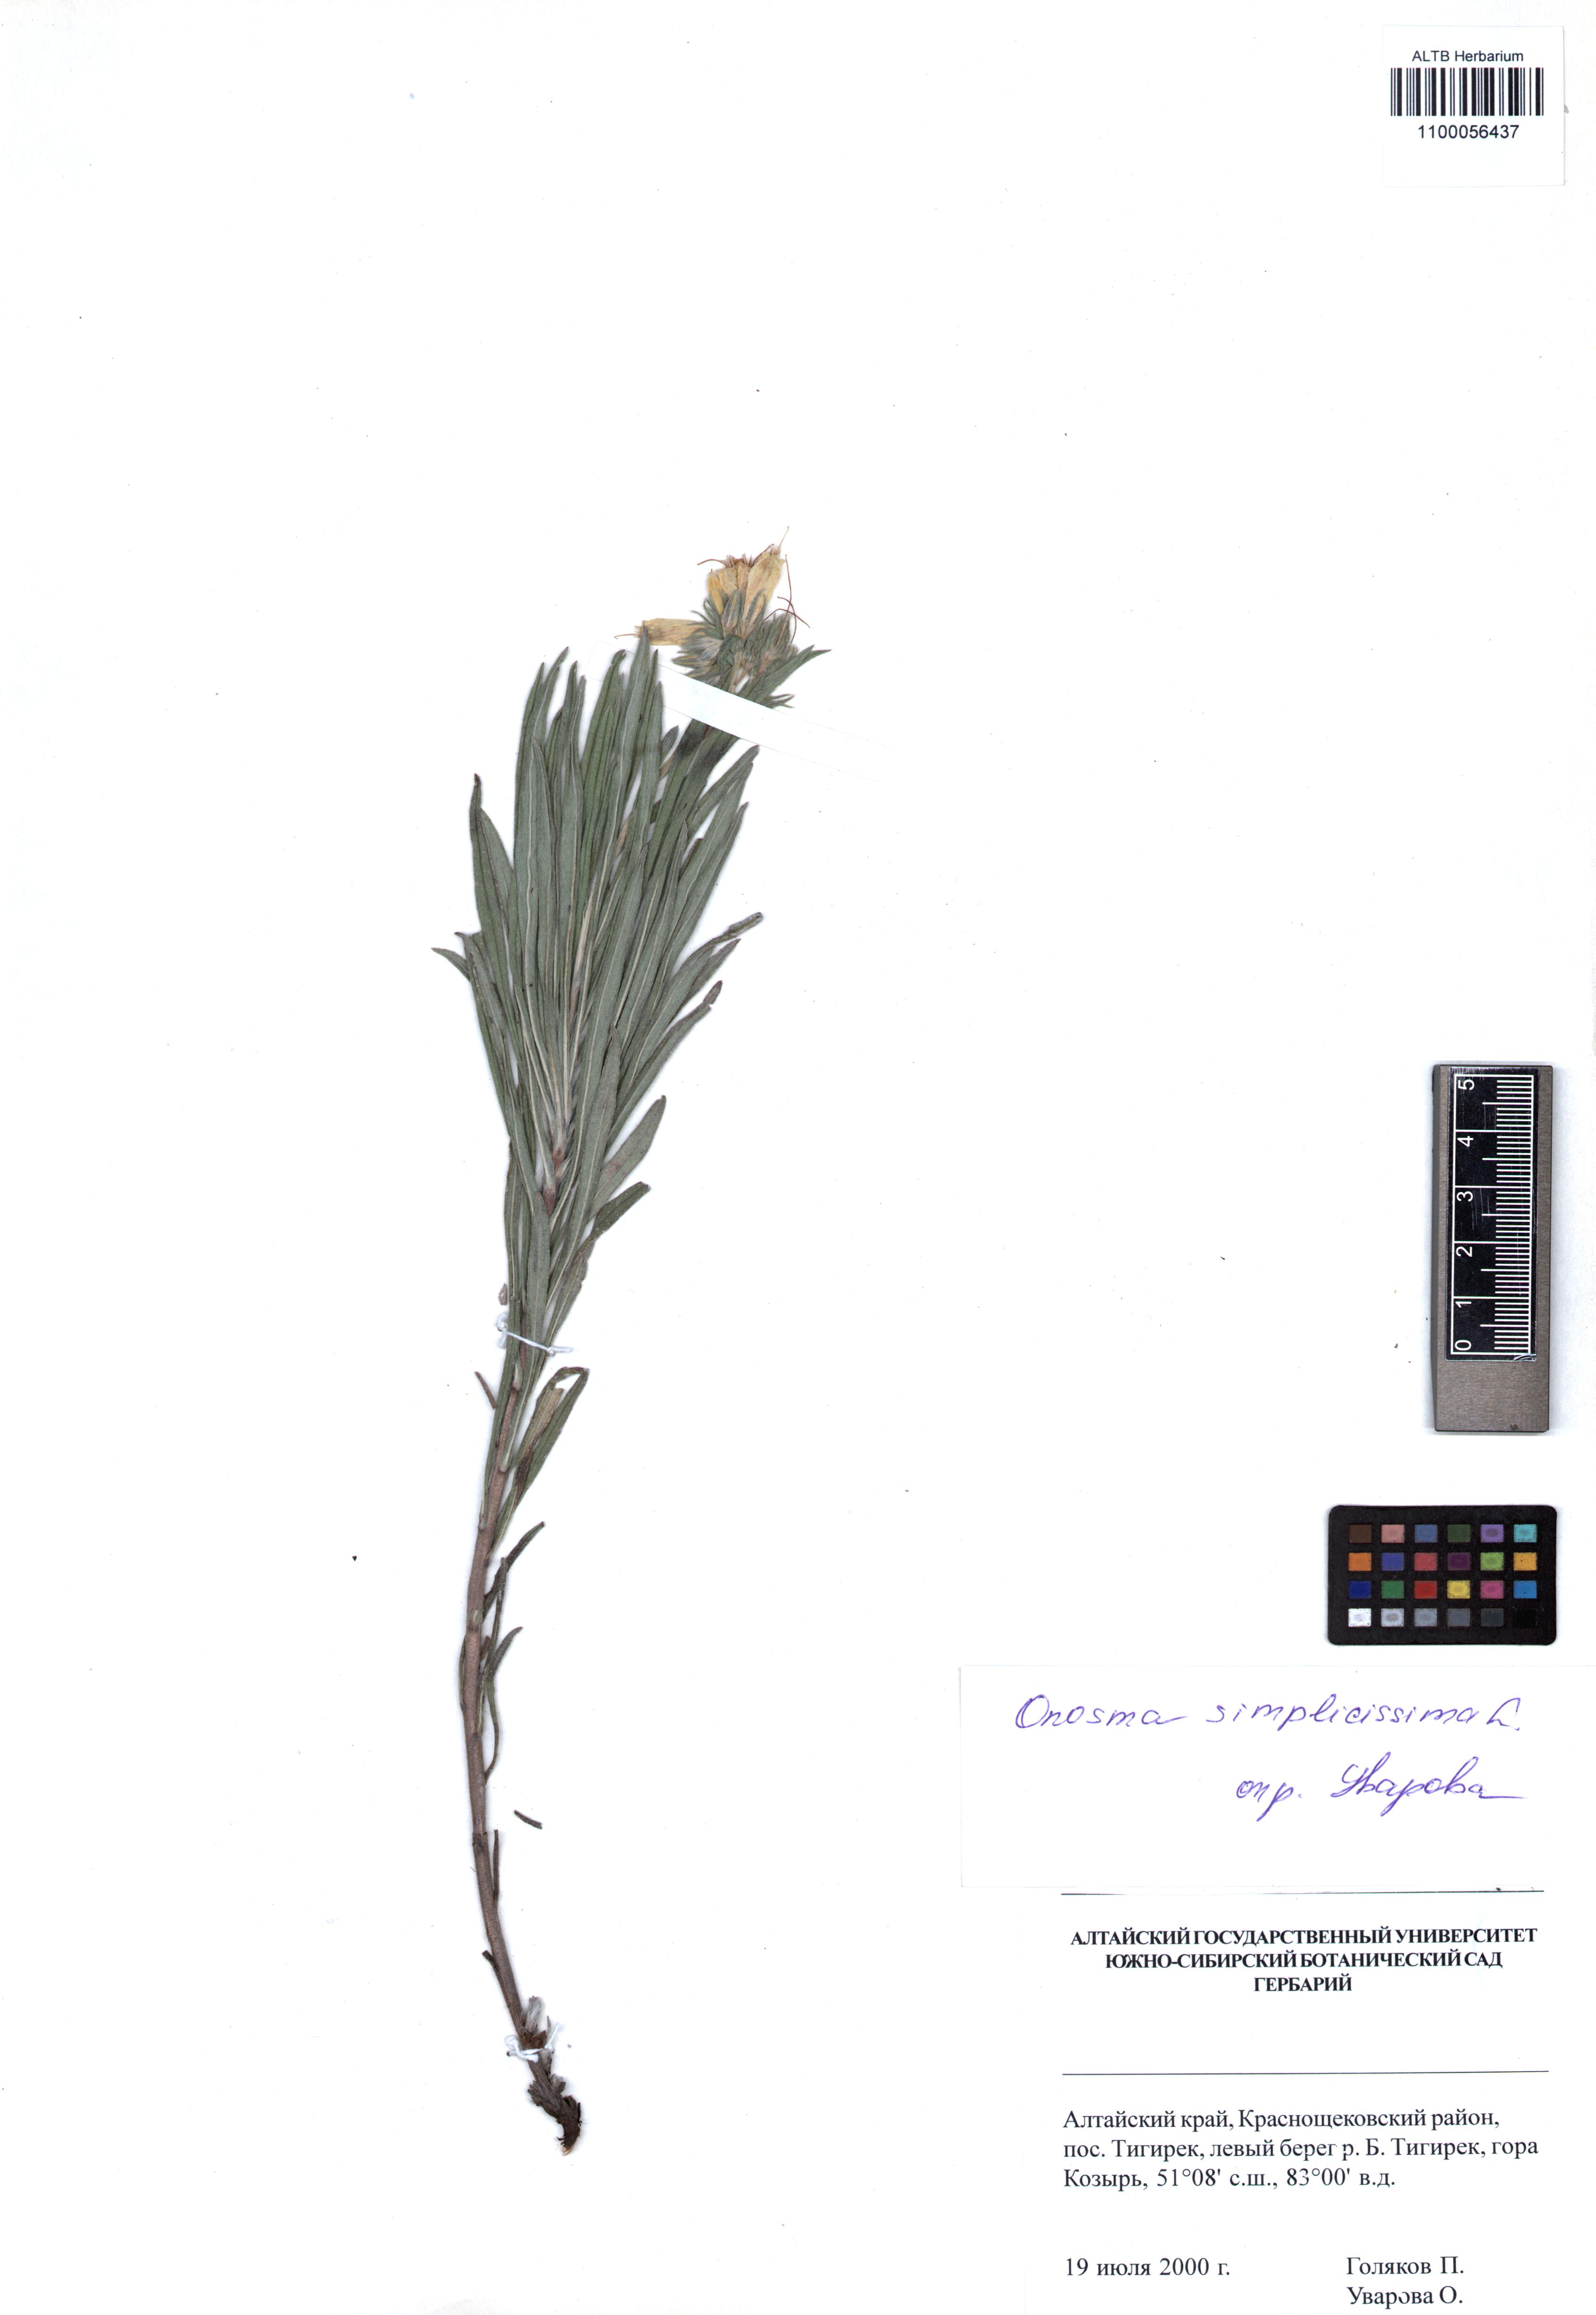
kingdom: Plantae
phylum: Tracheophyta
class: Magnoliopsida
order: Boraginales
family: Boraginaceae
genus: Onosma
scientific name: Onosma simplicissima
